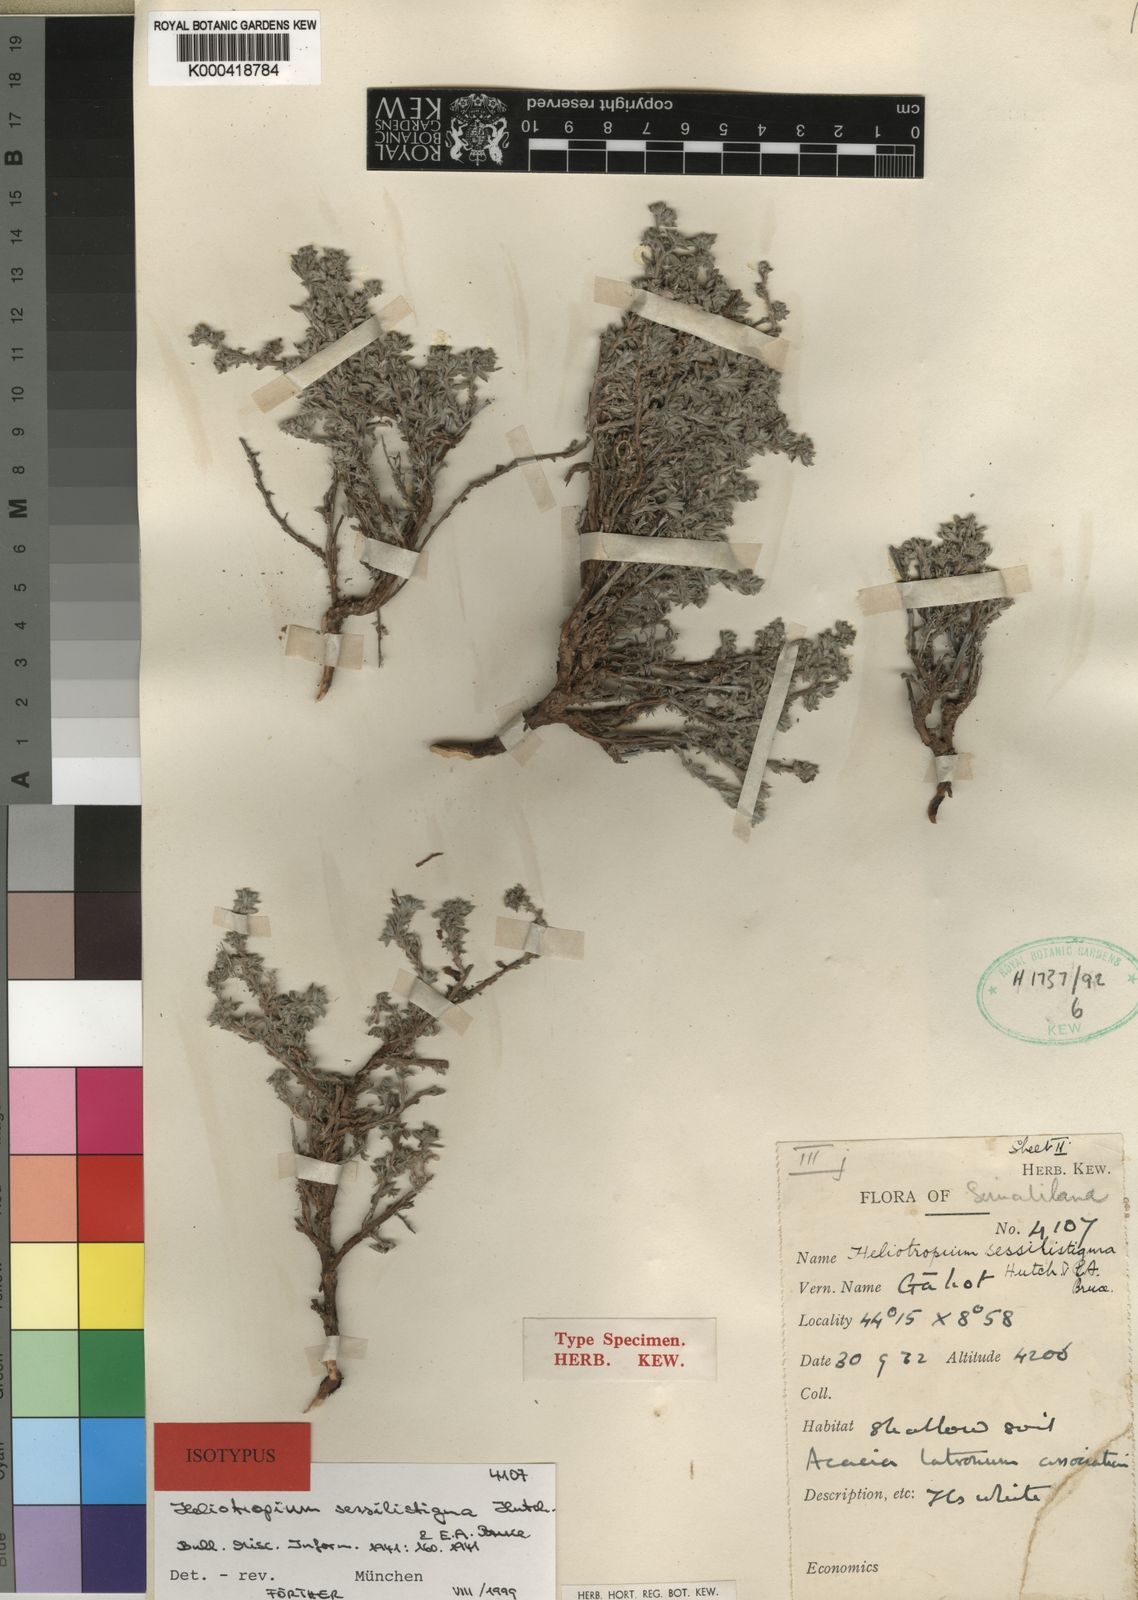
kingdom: Plantae
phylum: Tracheophyta
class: Magnoliopsida
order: Boraginales
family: Heliotropiaceae
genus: Euploca
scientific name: Euploca sessilistigma
